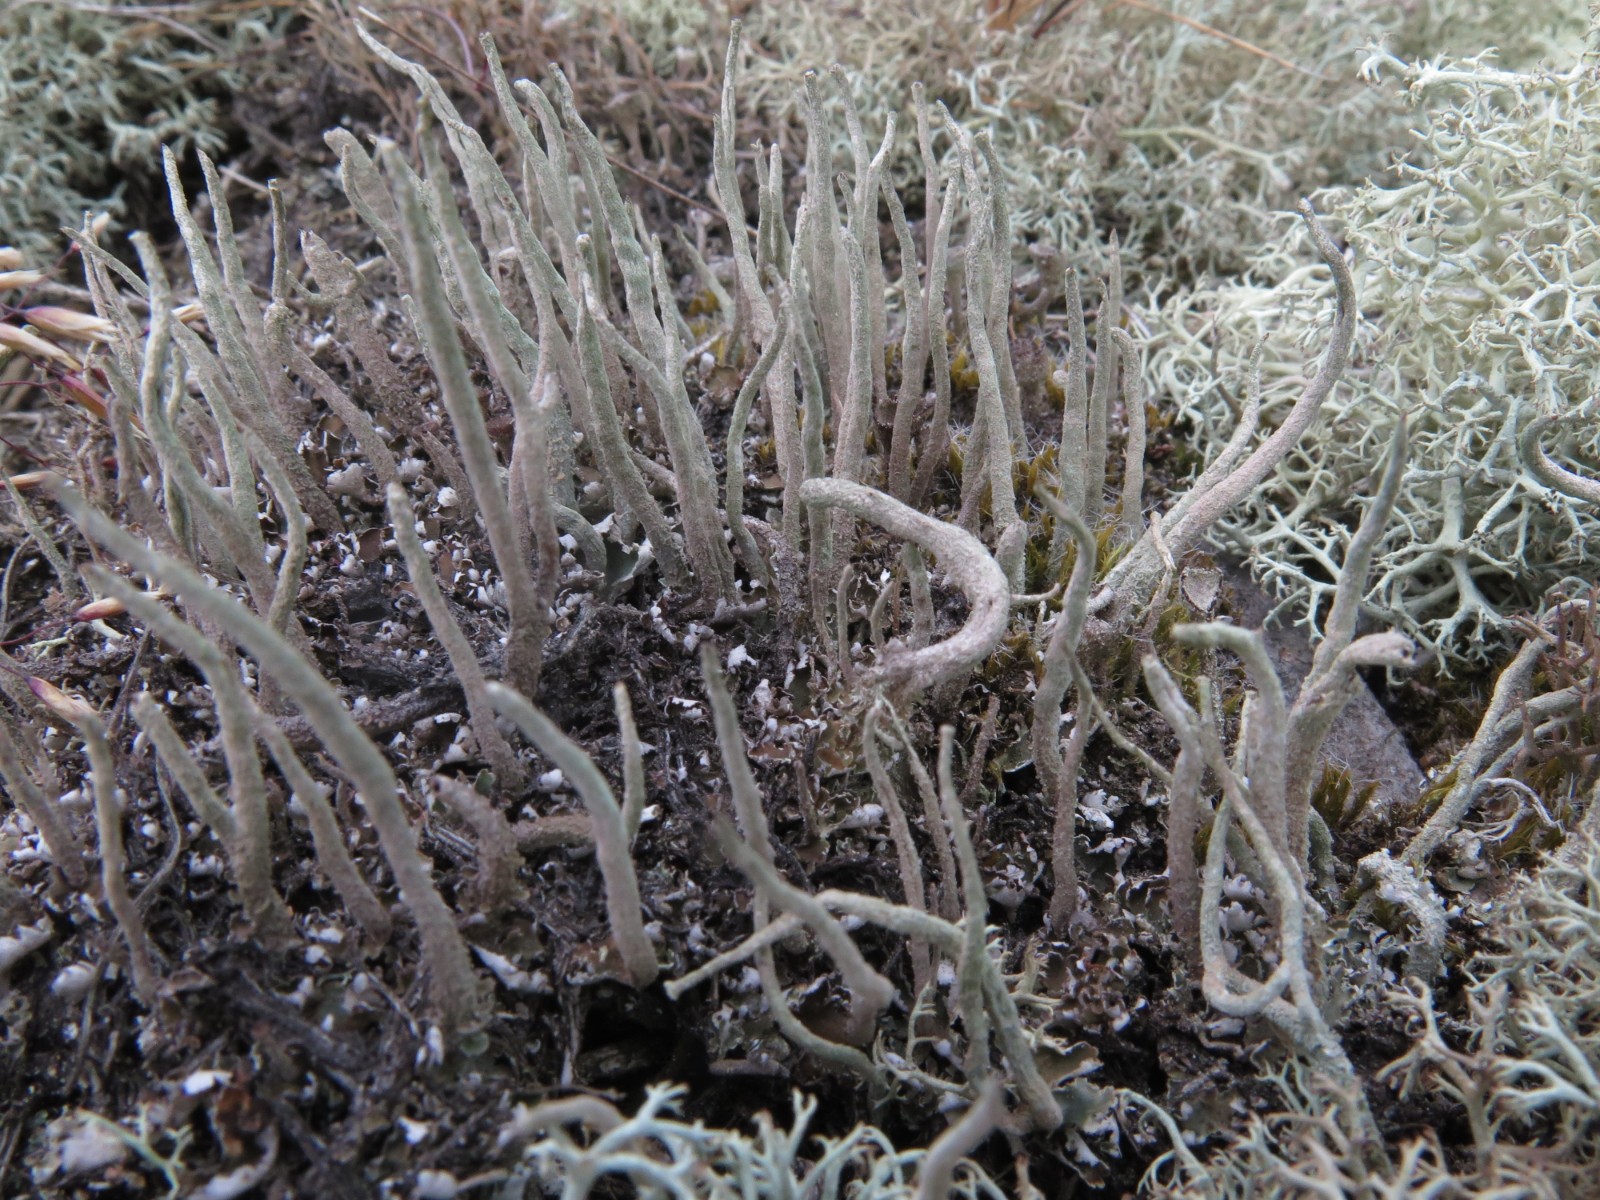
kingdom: Fungi
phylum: Ascomycota
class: Lecanoromycetes
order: Lecanorales
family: Cladoniaceae
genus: Cladonia
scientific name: Cladonia ochrochlora
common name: stød-bægerlav
